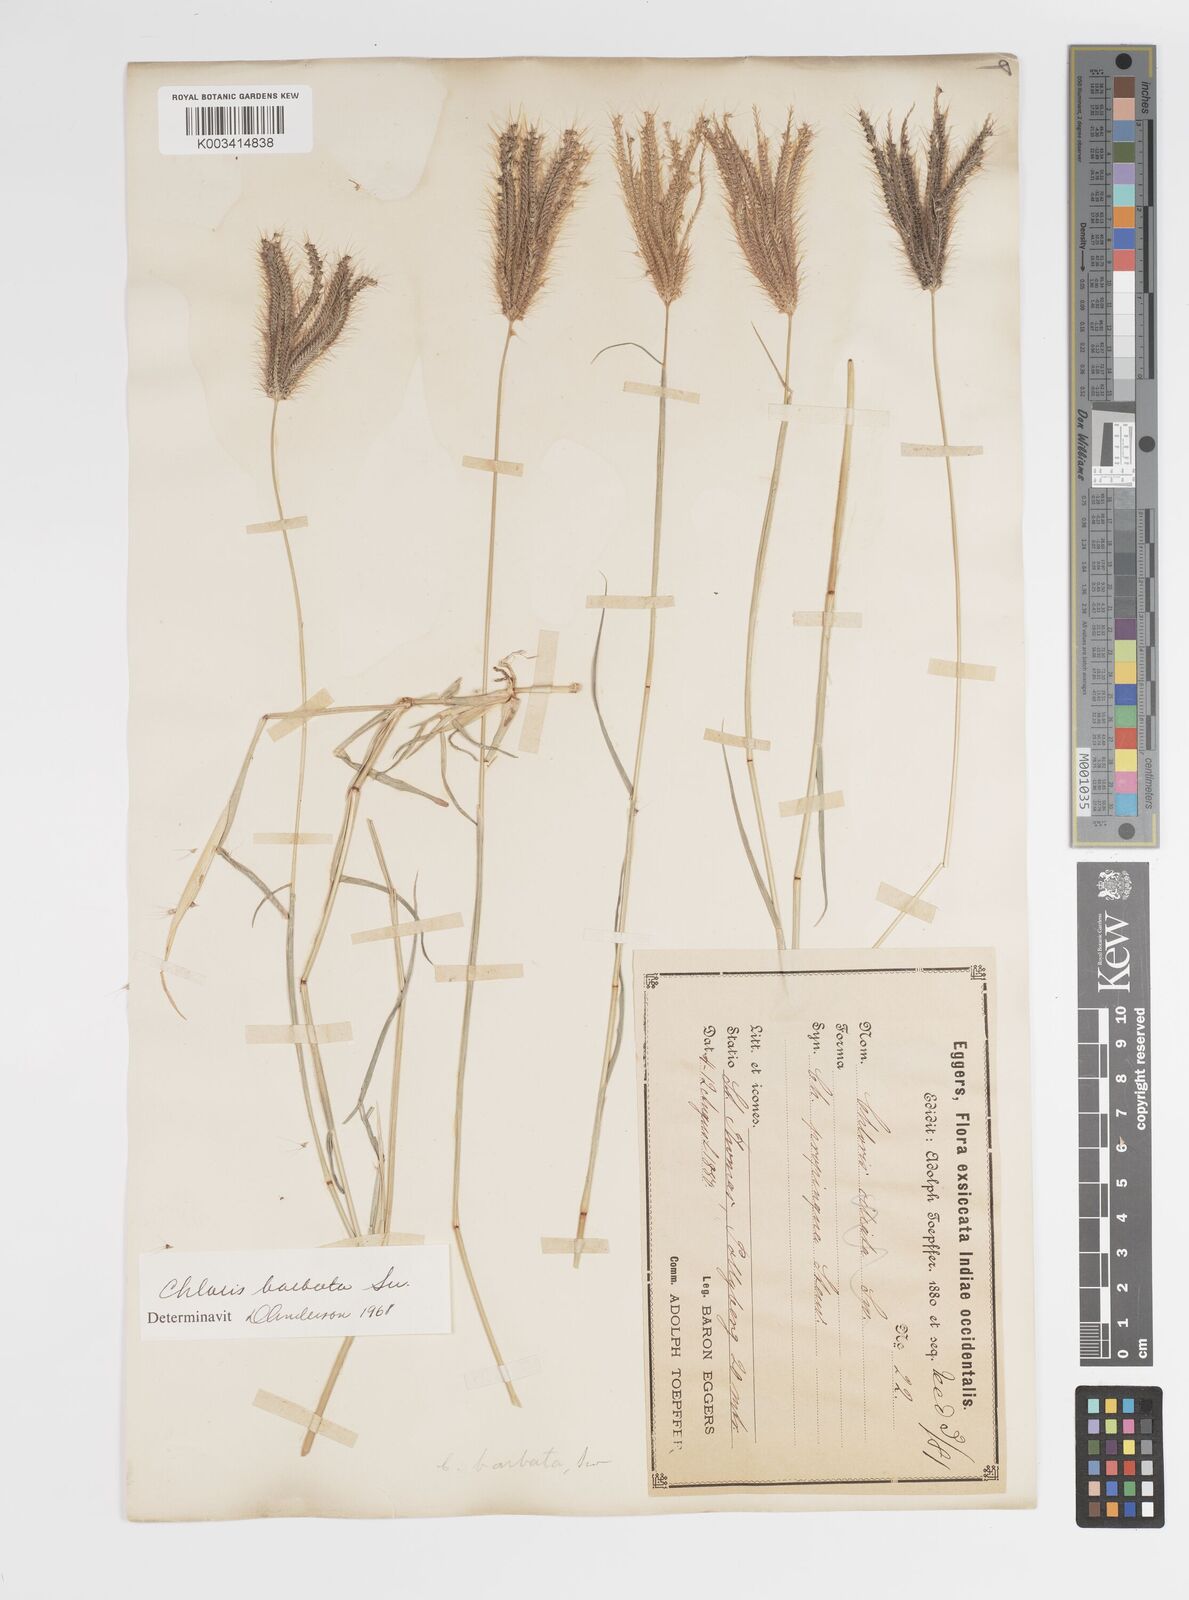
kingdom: Plantae
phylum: Tracheophyta
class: Liliopsida
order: Poales
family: Poaceae
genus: Chloris
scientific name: Chloris barbata
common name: Swollen fingergrass
